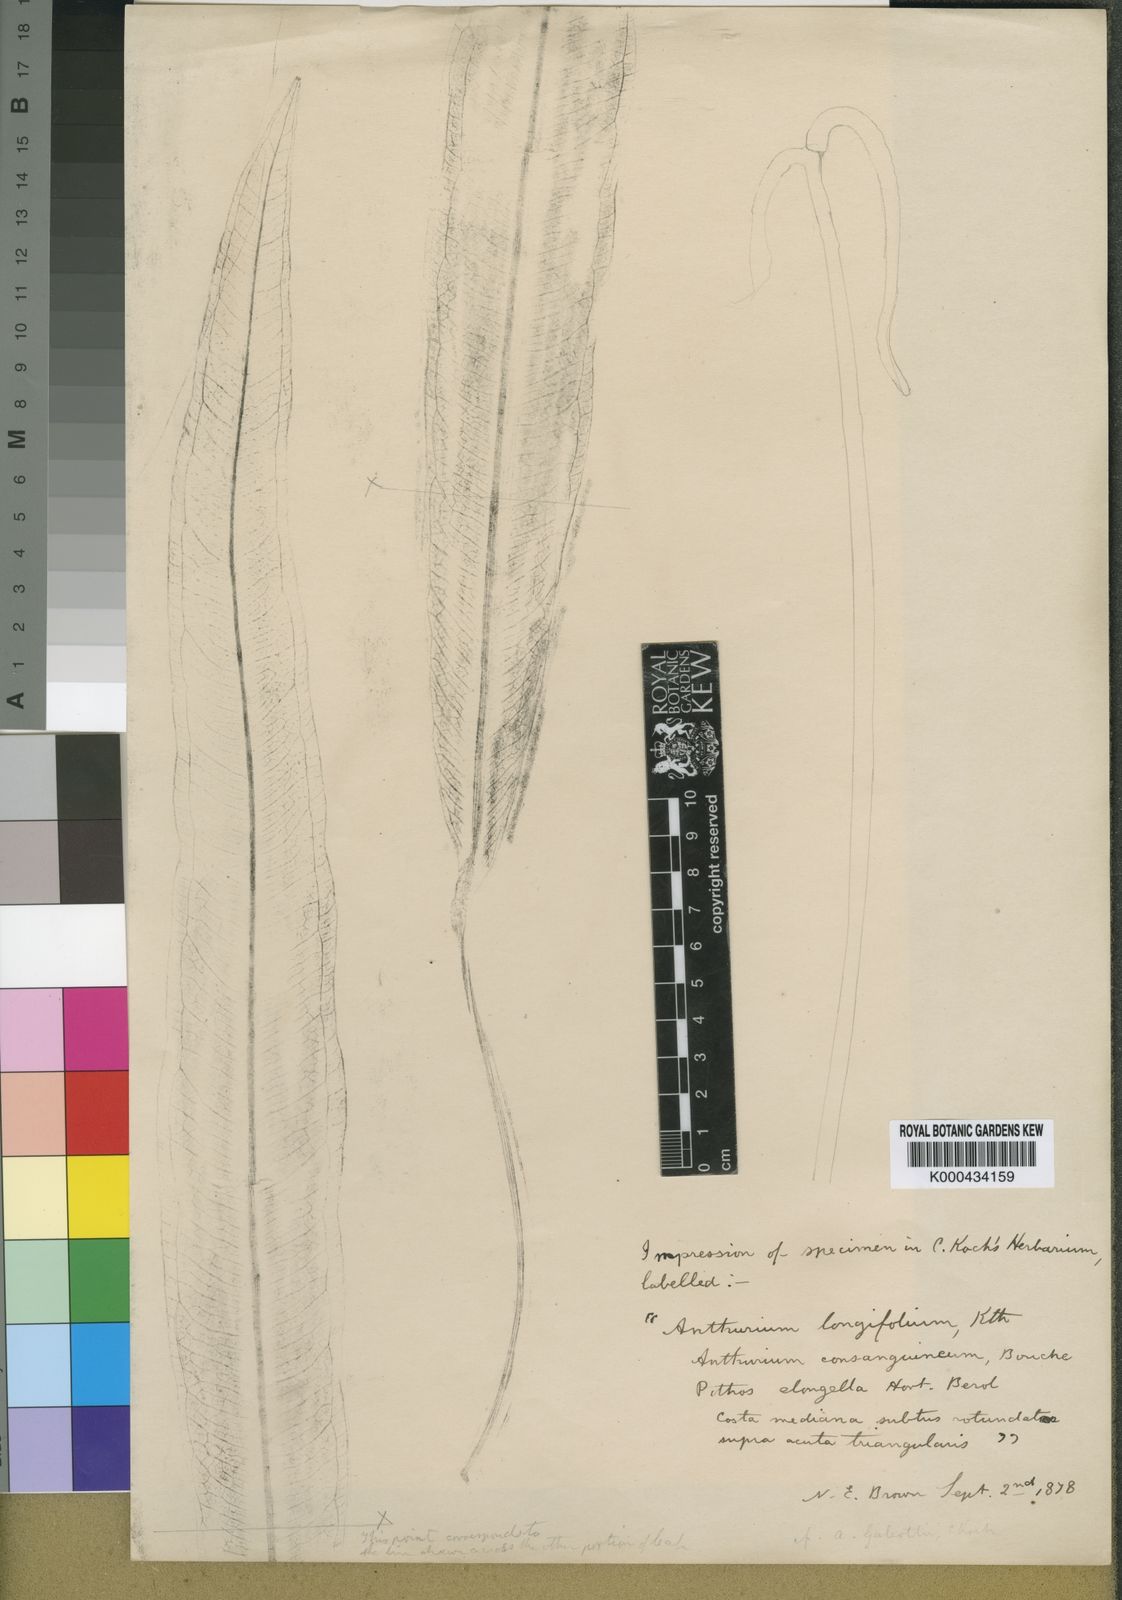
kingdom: Plantae
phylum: Tracheophyta
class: Liliopsida
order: Alismatales
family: Araceae
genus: Anthurium
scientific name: Anthurium longifolium
